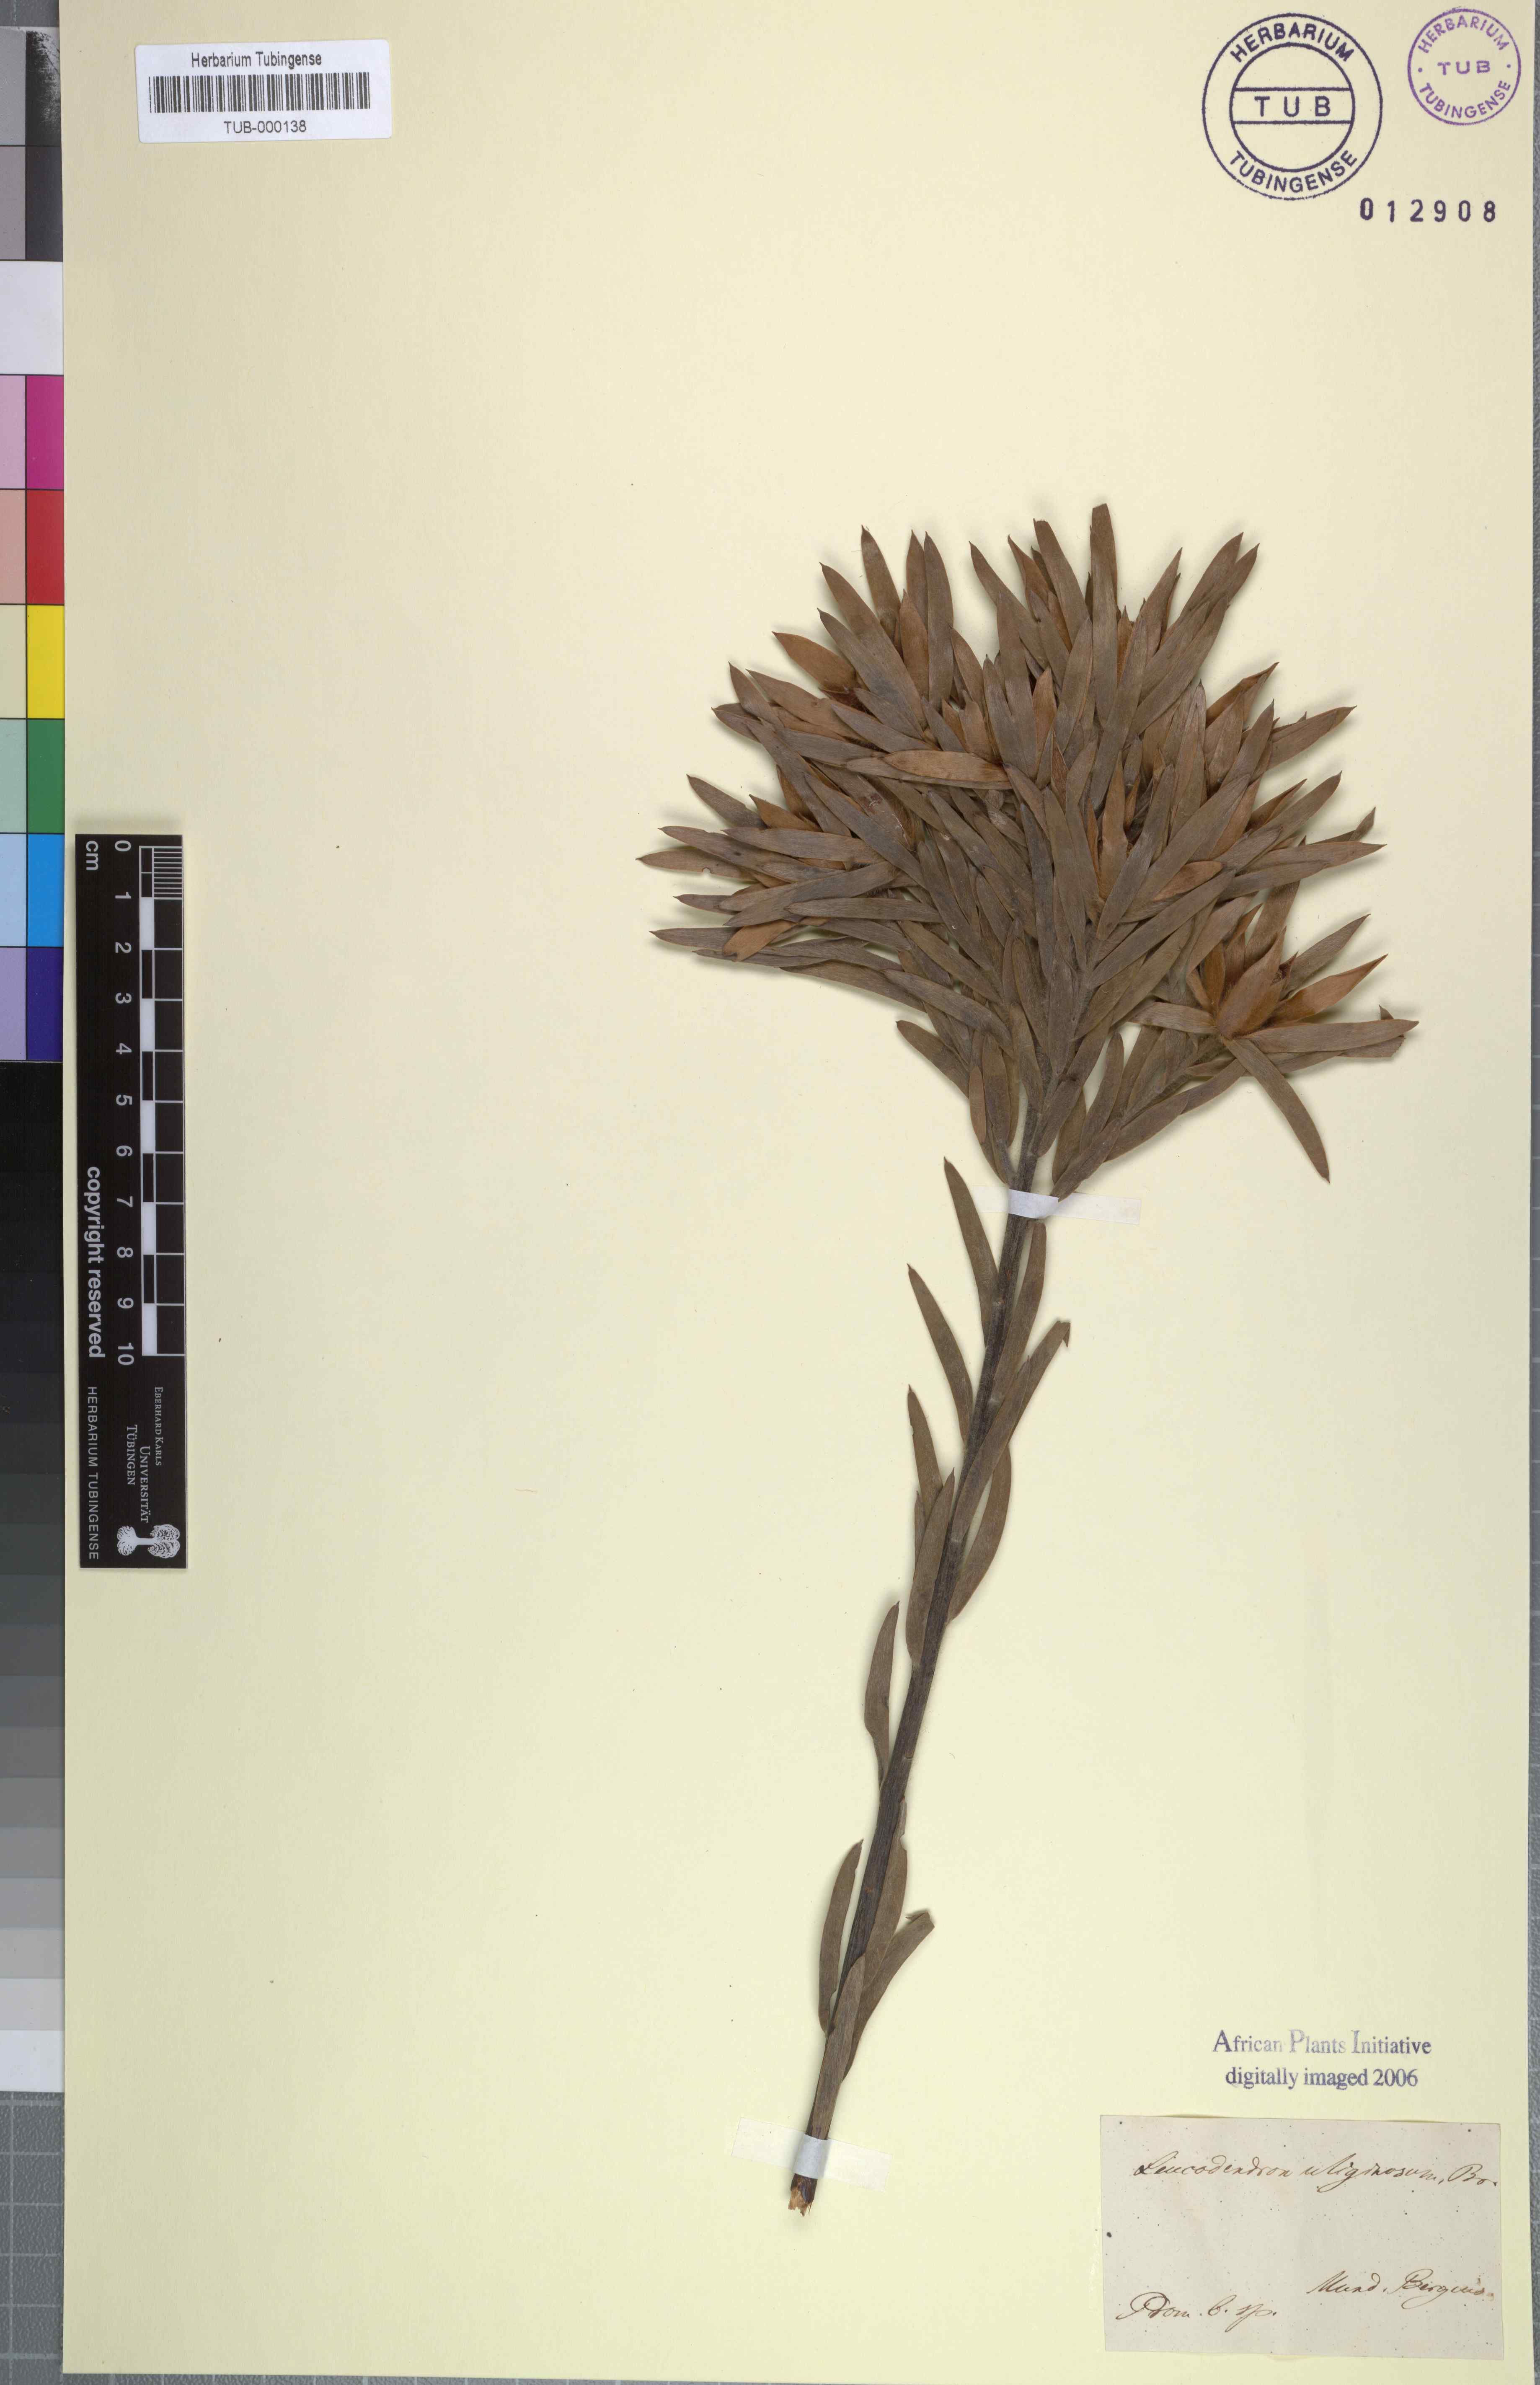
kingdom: Plantae
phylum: Tracheophyta
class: Magnoliopsida
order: Proteales
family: Proteaceae
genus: Leucadendron
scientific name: Leucadendron uliginosum
